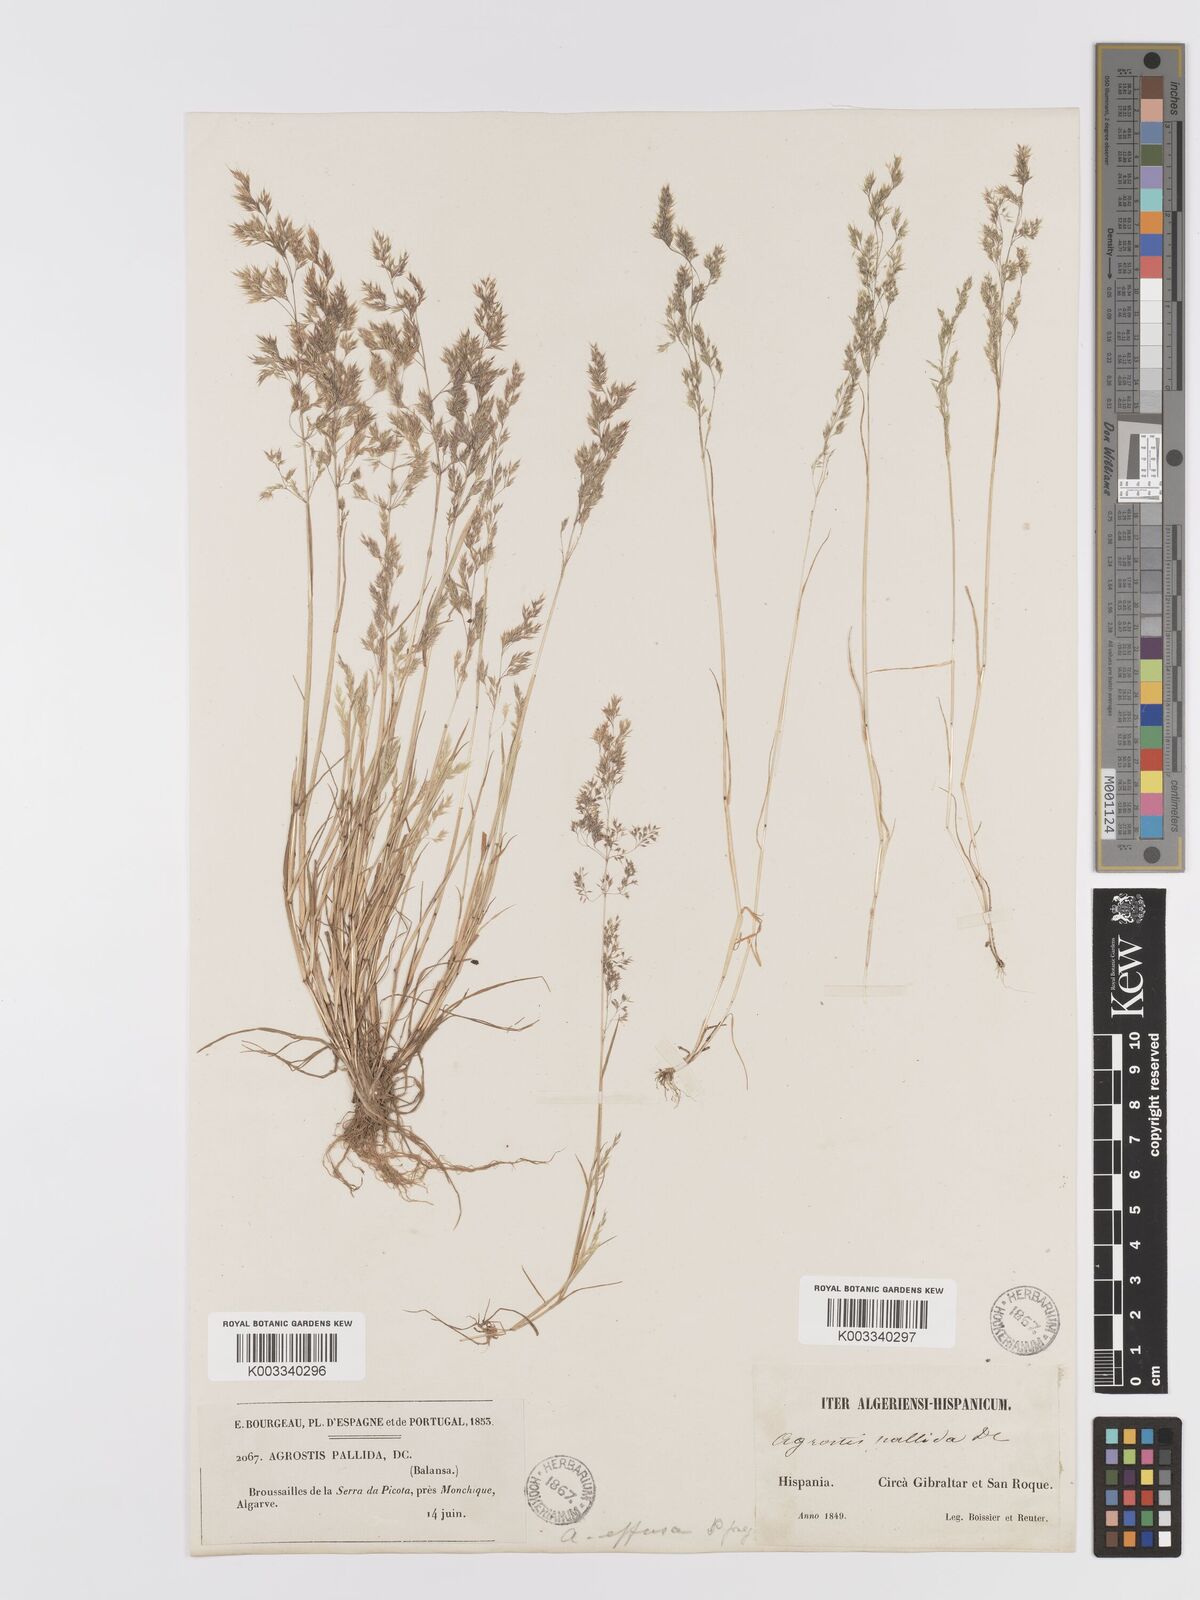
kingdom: Plantae
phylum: Tracheophyta
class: Liliopsida
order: Poales
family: Poaceae
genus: Agrostis
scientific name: Agrostis pourretii
